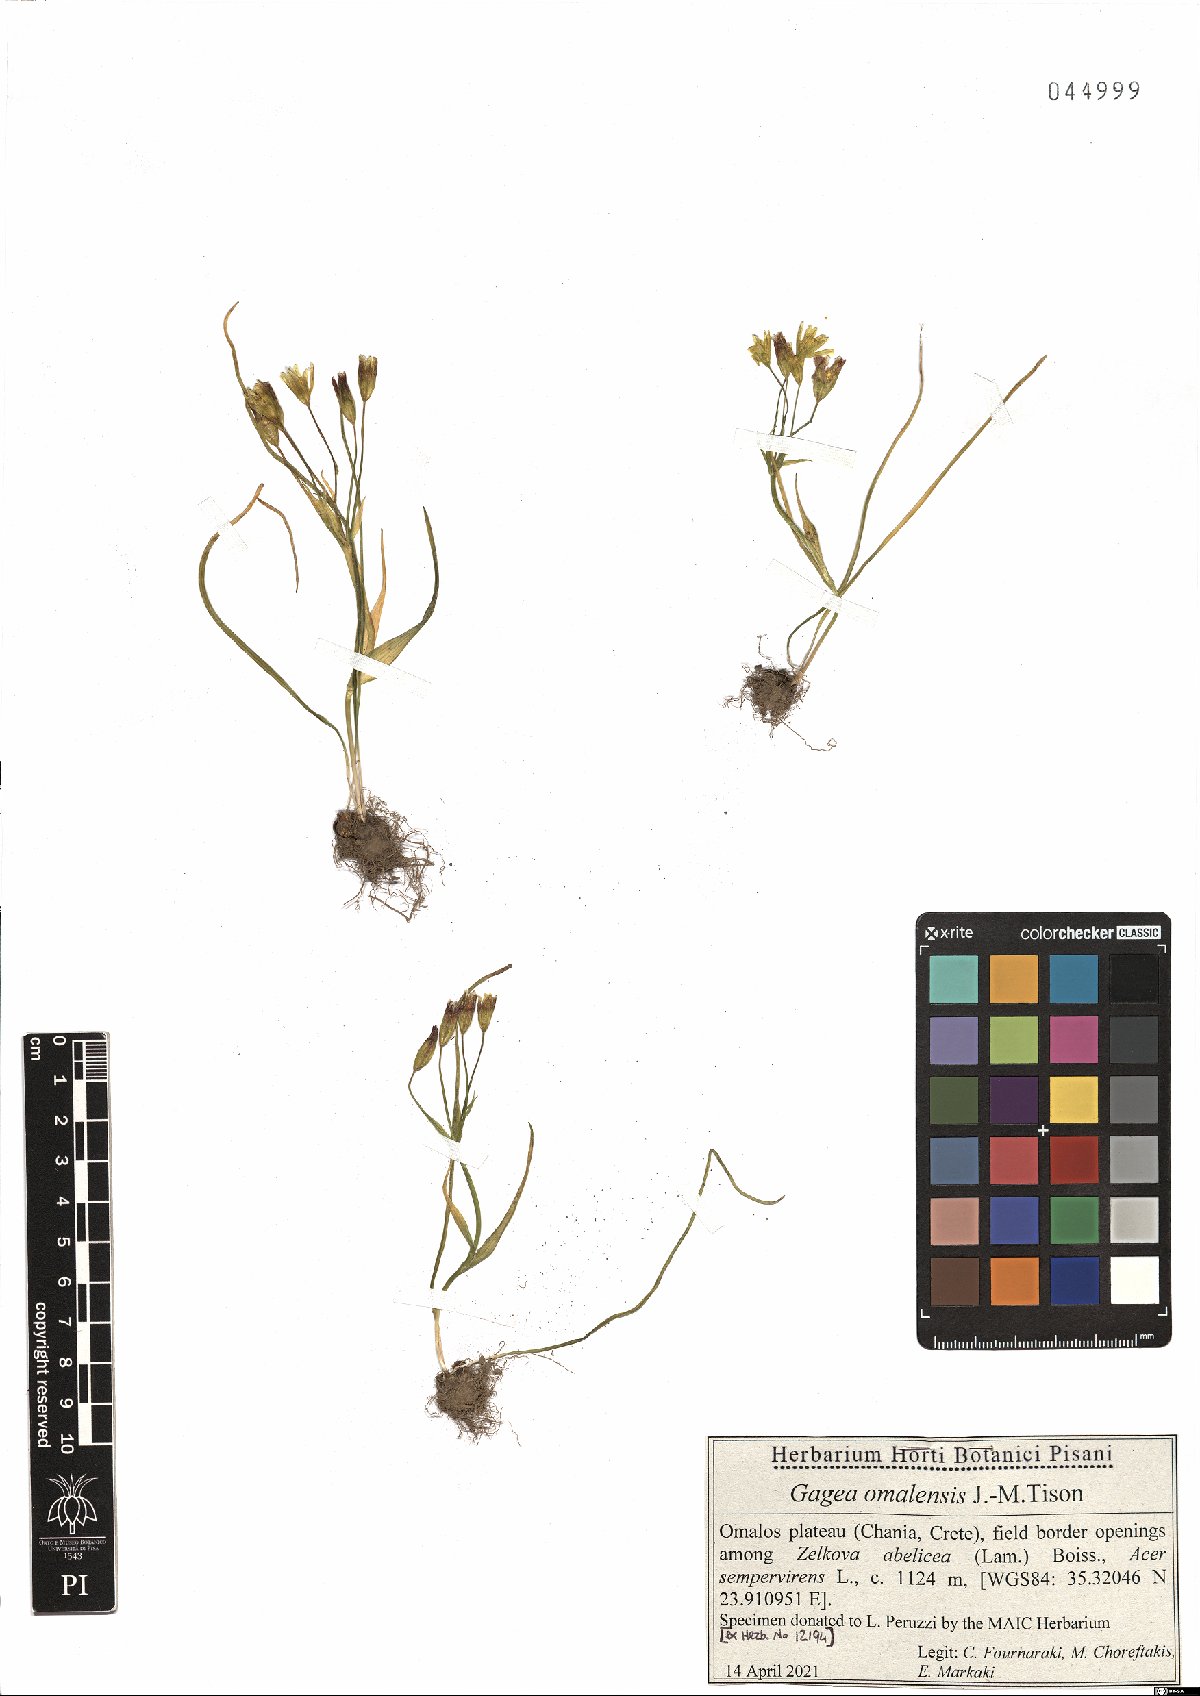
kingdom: Plantae
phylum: Tracheophyta
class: Liliopsida
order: Liliales
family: Liliaceae
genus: Gagea
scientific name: Gagea omalensis
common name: Omalos gagea
